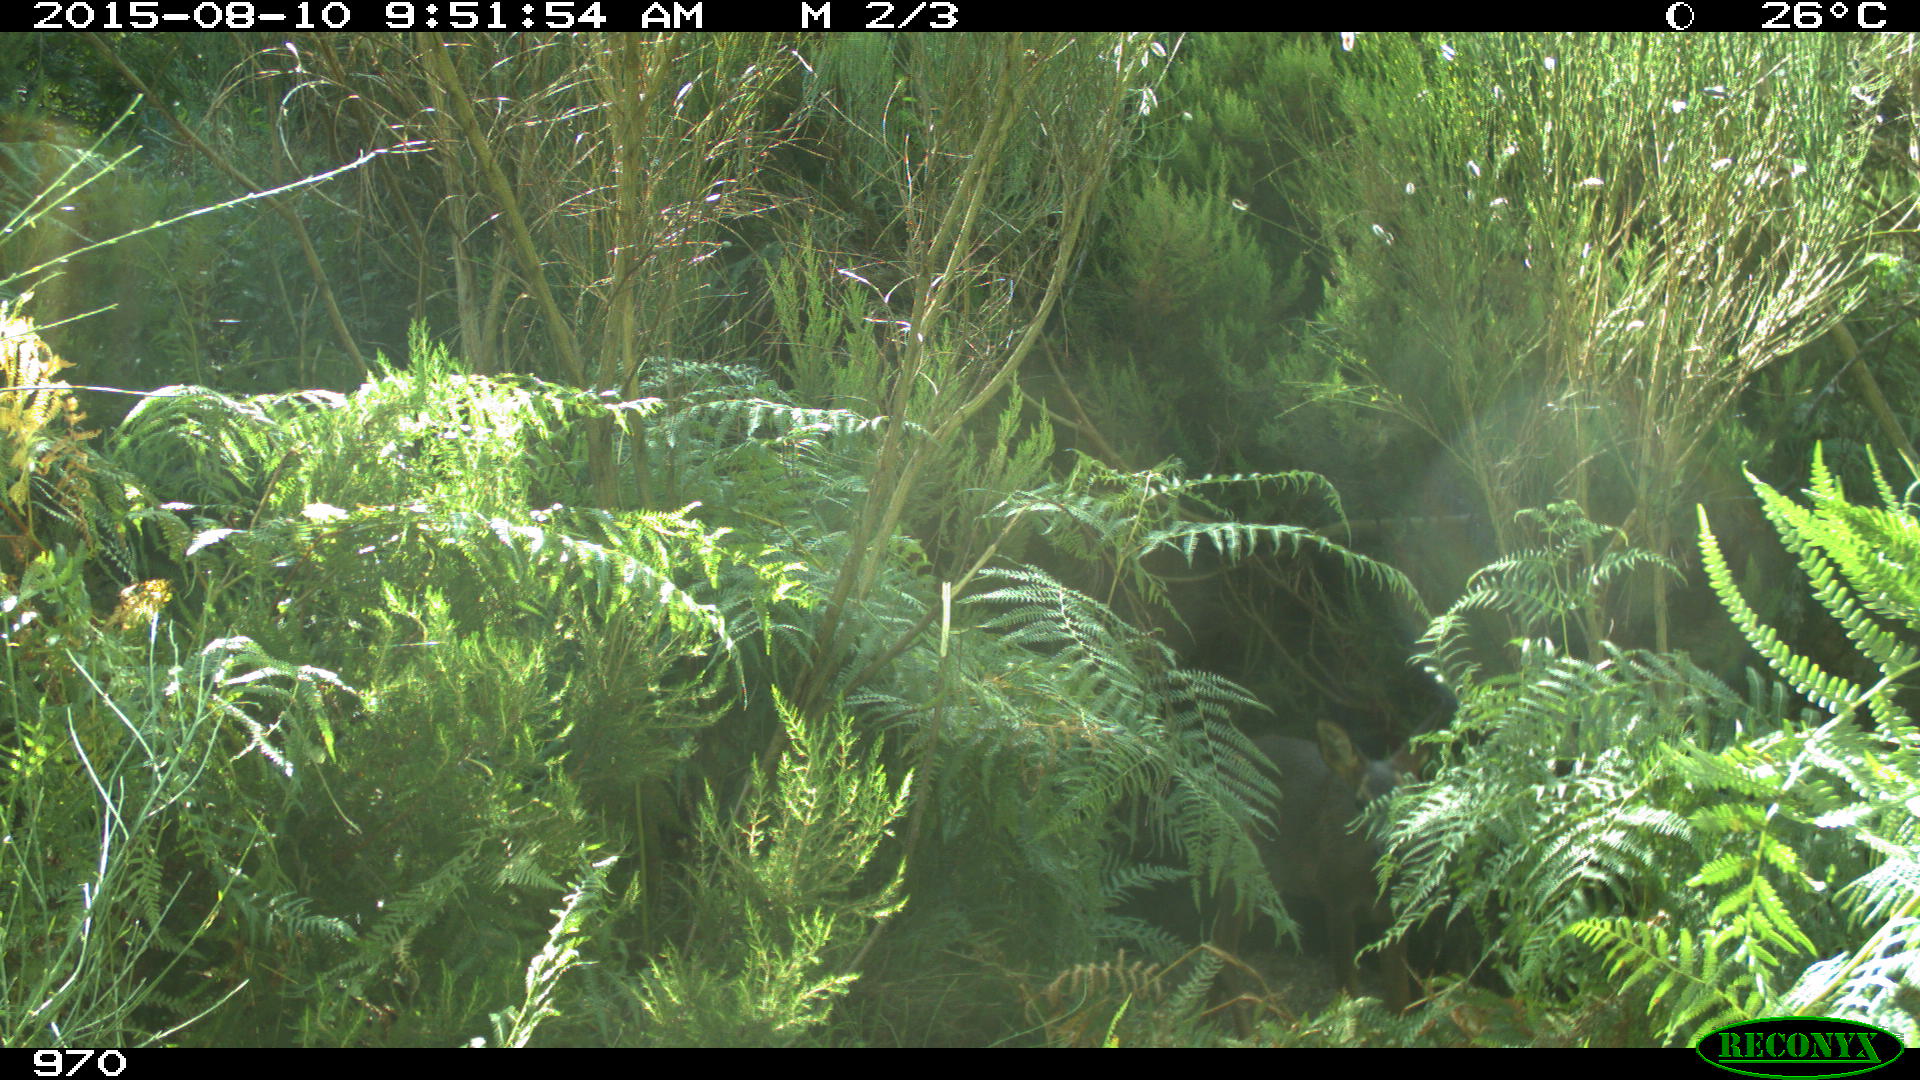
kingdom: Animalia
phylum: Chordata
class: Mammalia
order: Artiodactyla
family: Cervidae
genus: Capreolus
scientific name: Capreolus capreolus
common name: Western roe deer
